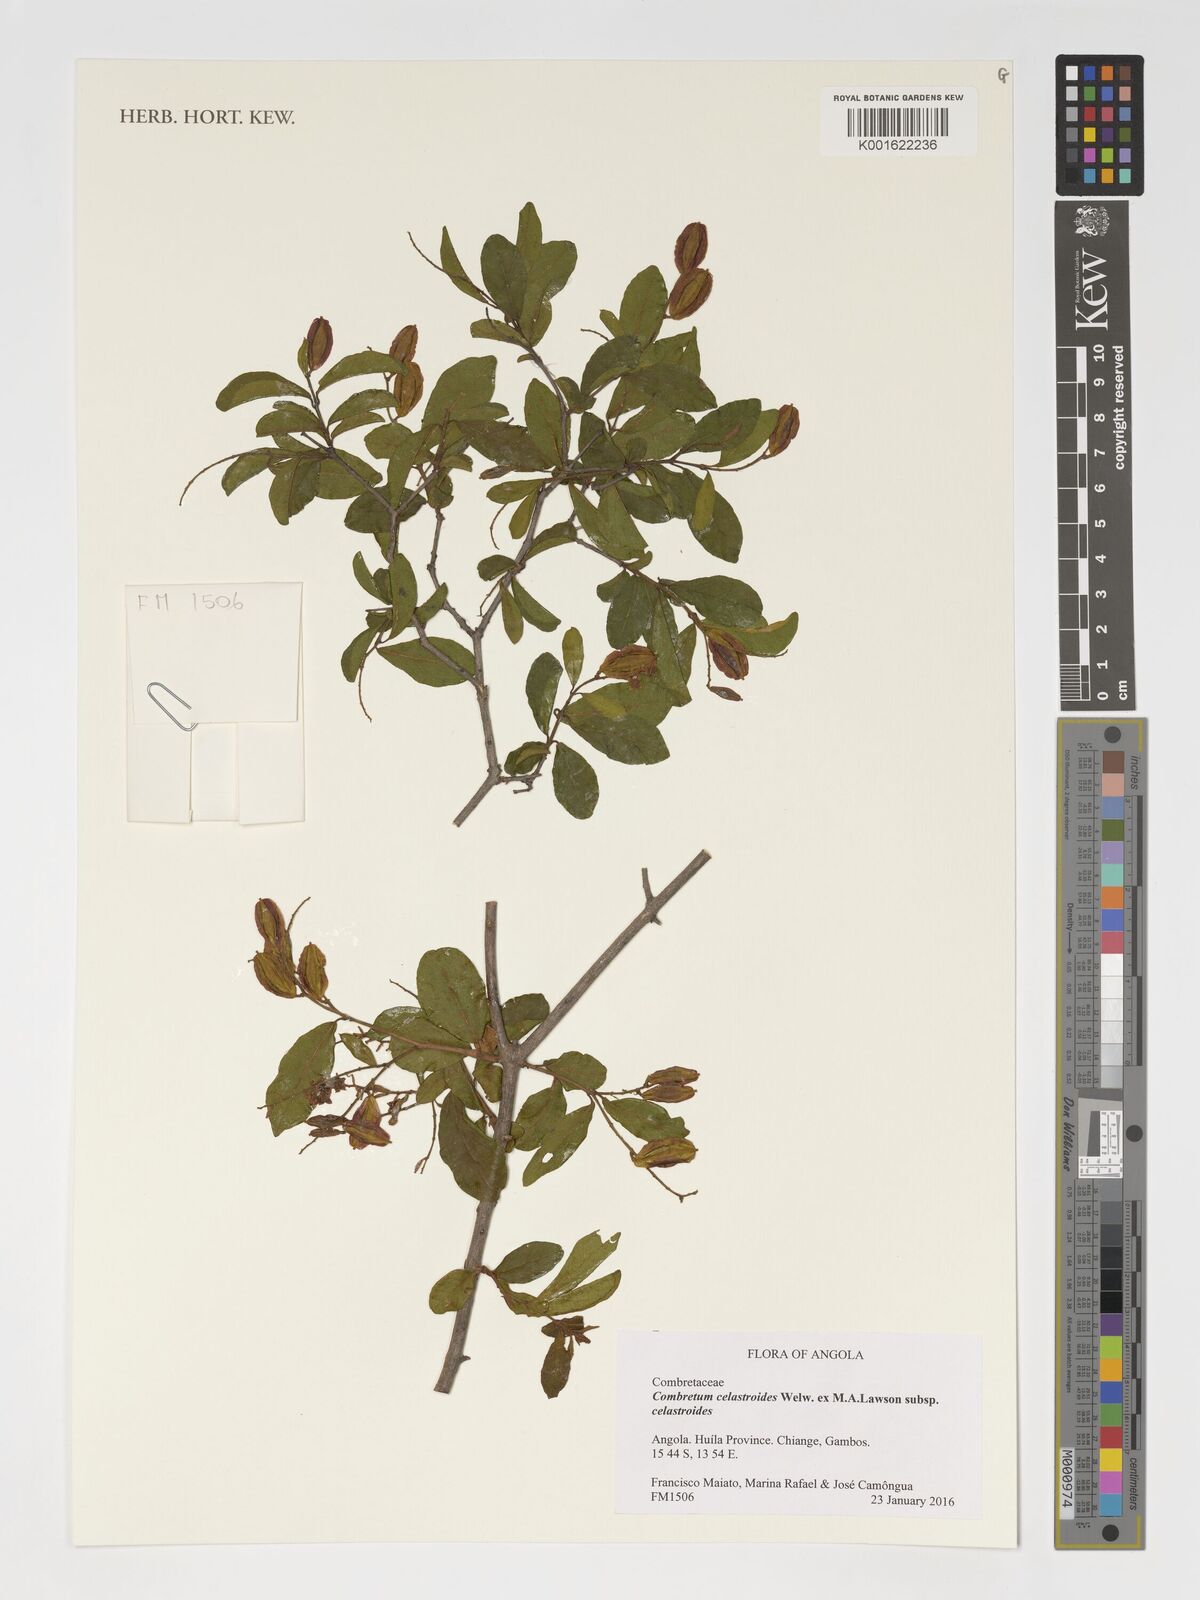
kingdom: Plantae
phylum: Tracheophyta
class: Magnoliopsida
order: Myrtales
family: Combretaceae
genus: Combretum
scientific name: Combretum celastroides
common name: Jesse-bush combretum
